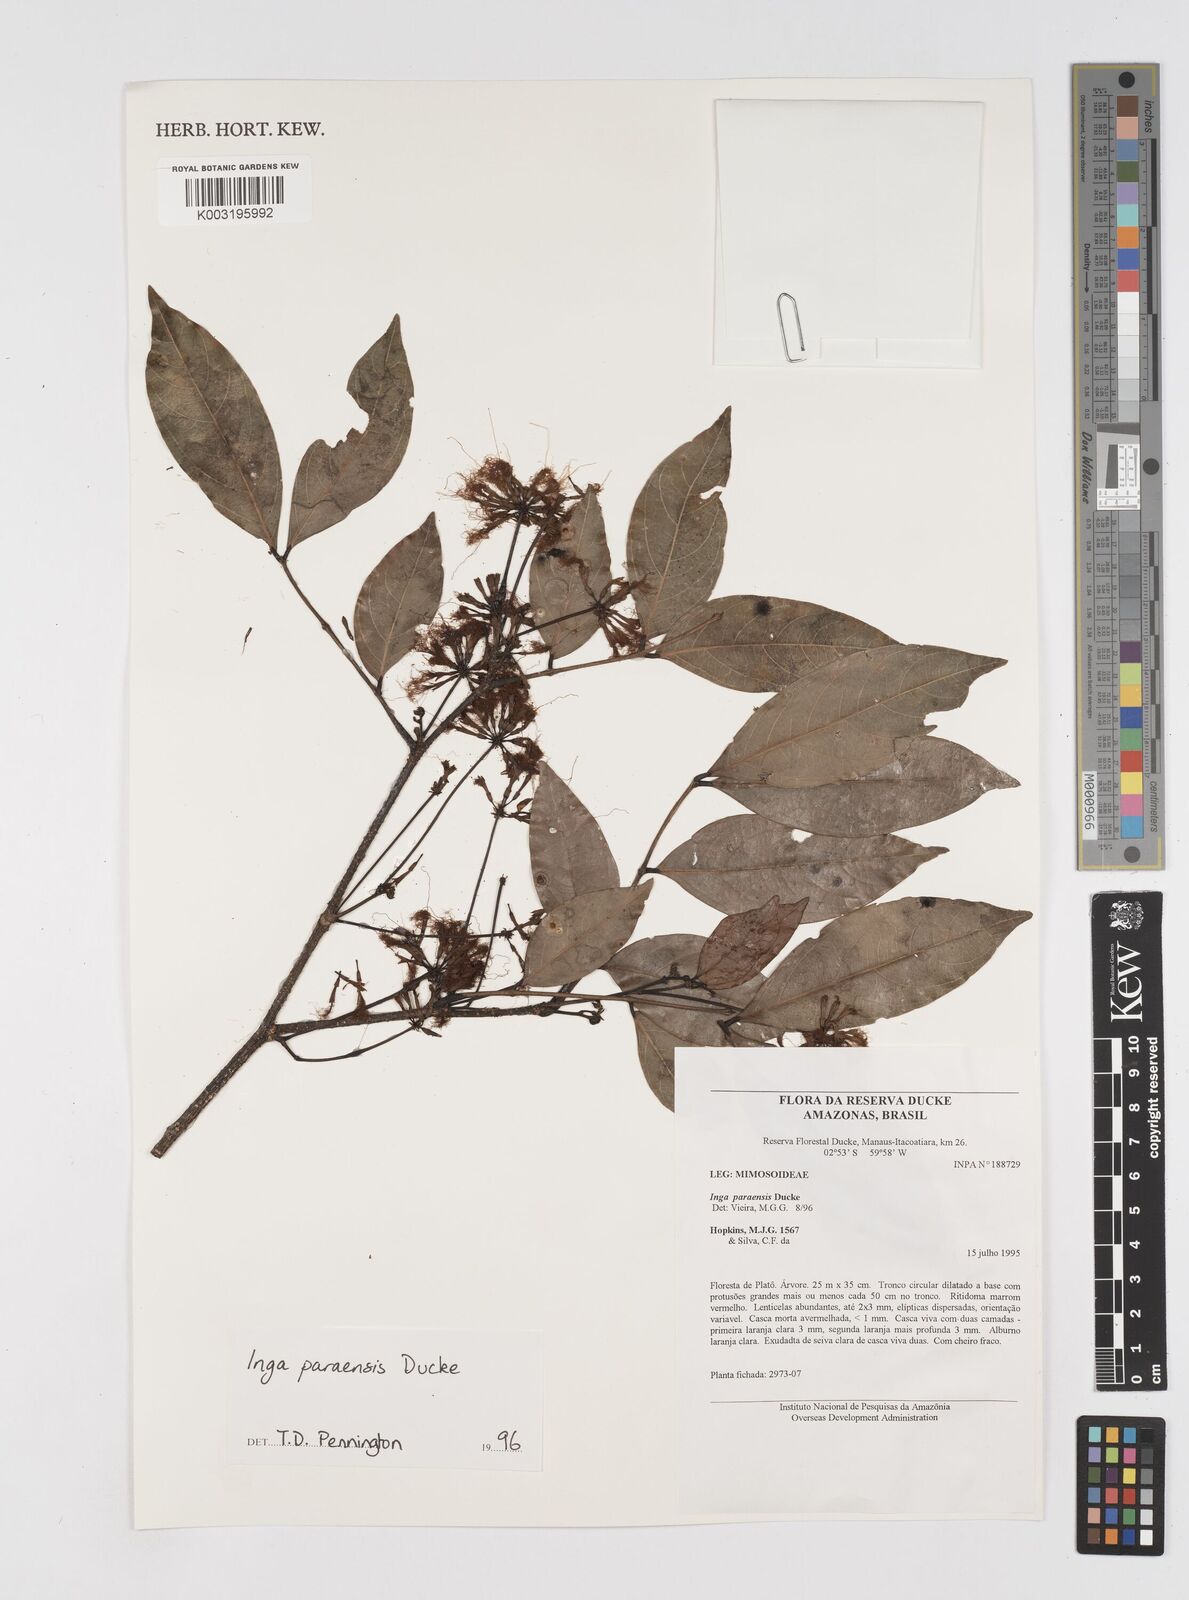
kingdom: Plantae
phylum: Tracheophyta
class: Magnoliopsida
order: Fabales
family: Fabaceae
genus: Inga
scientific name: Inga paraensis
